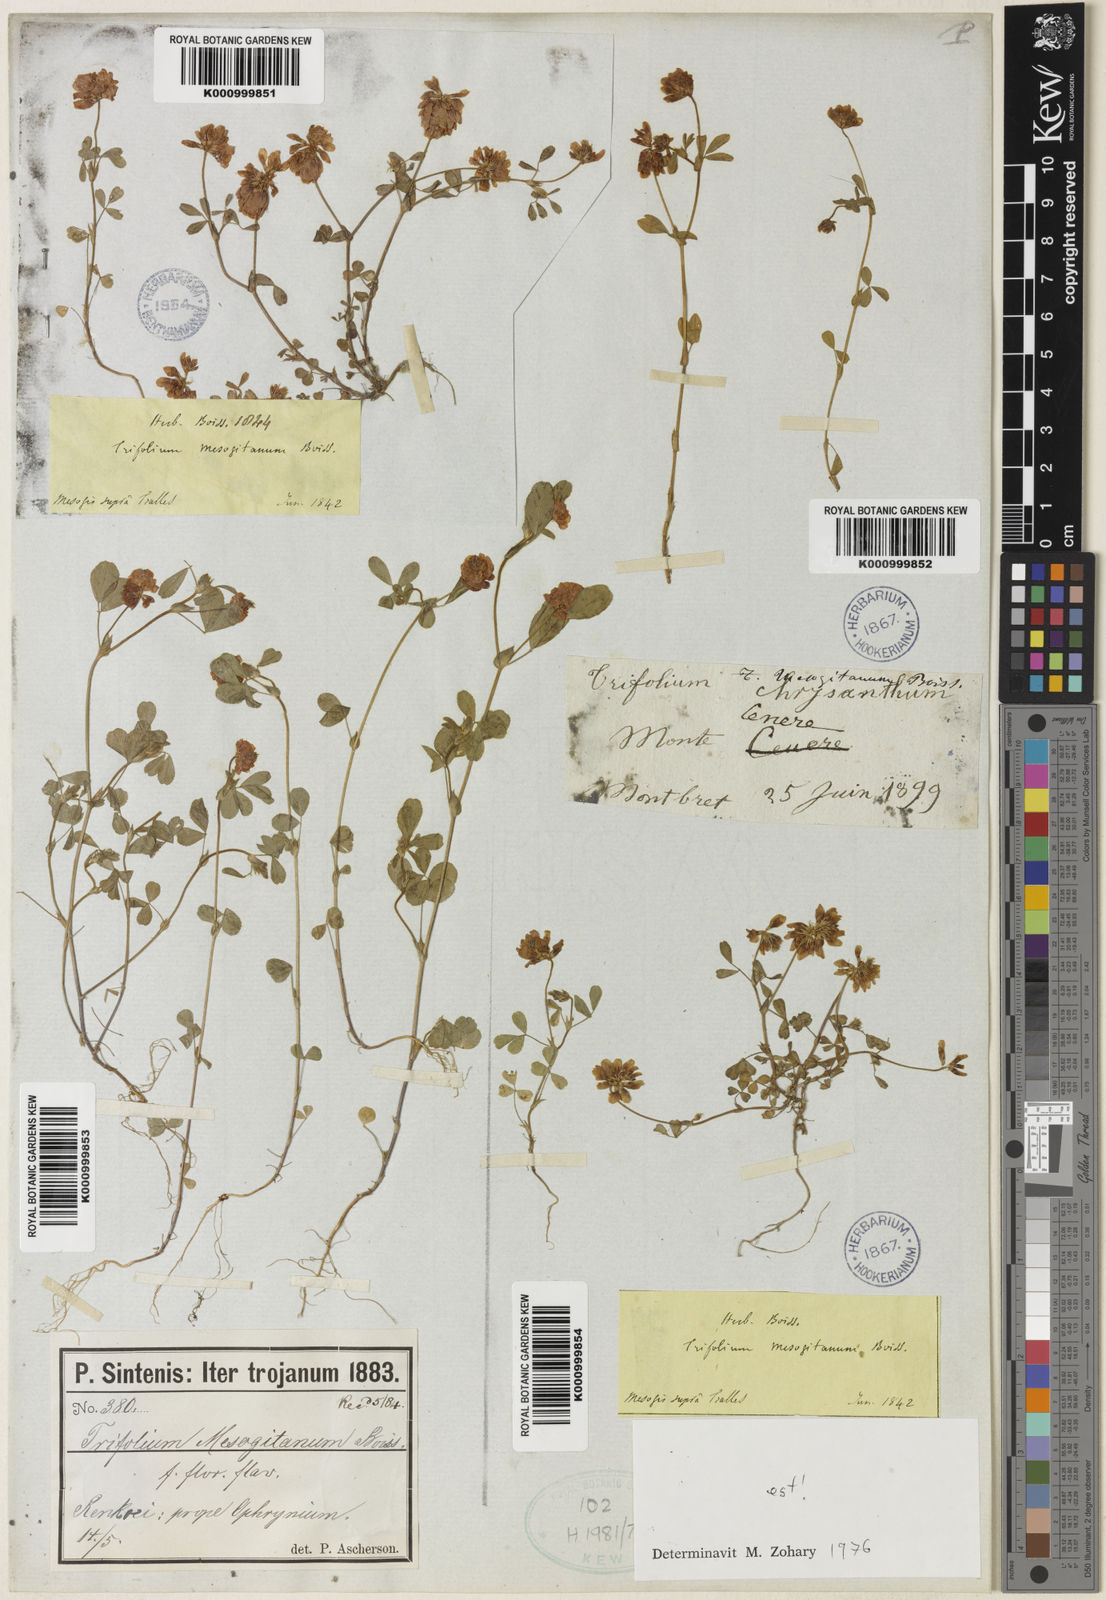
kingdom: Plantae
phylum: Tracheophyta
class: Magnoliopsida
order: Fabales
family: Fabaceae
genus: Trifolium
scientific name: Trifolium mesogitanum
